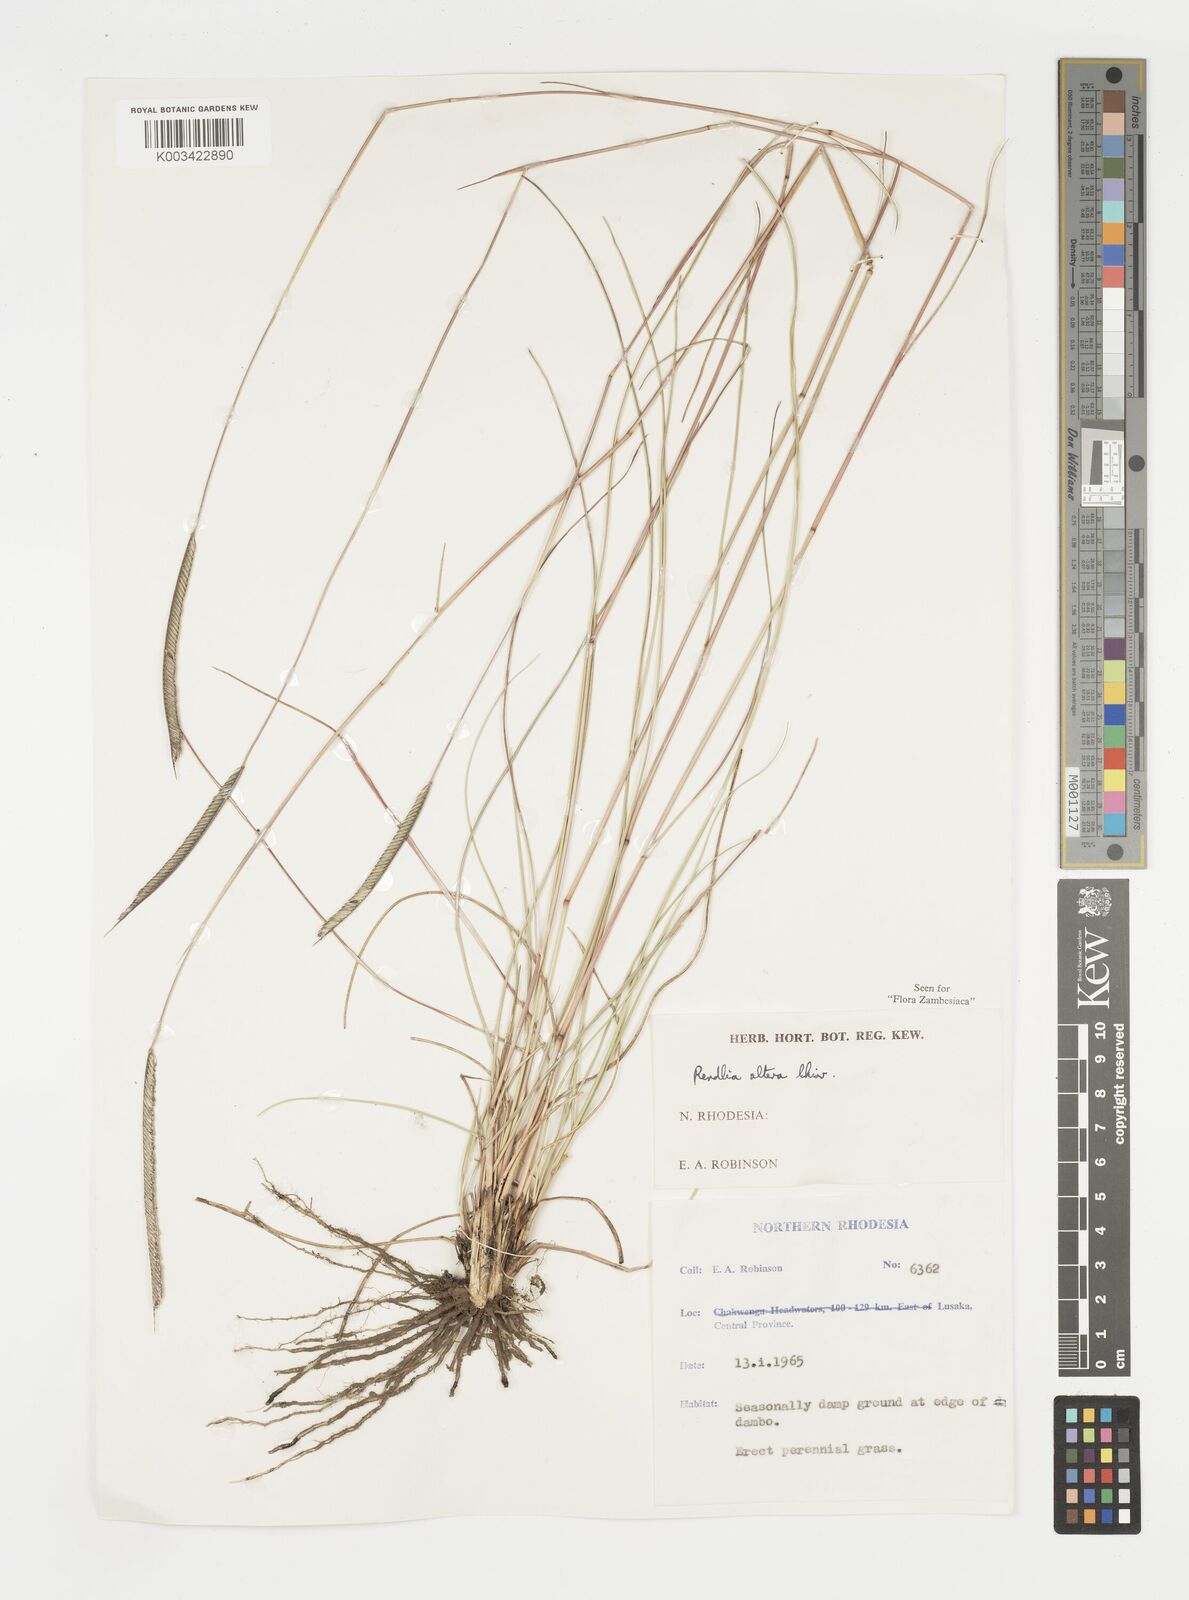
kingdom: Plantae
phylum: Tracheophyta
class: Liliopsida
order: Poales
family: Poaceae
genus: Microchloa
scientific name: Microchloa altera
